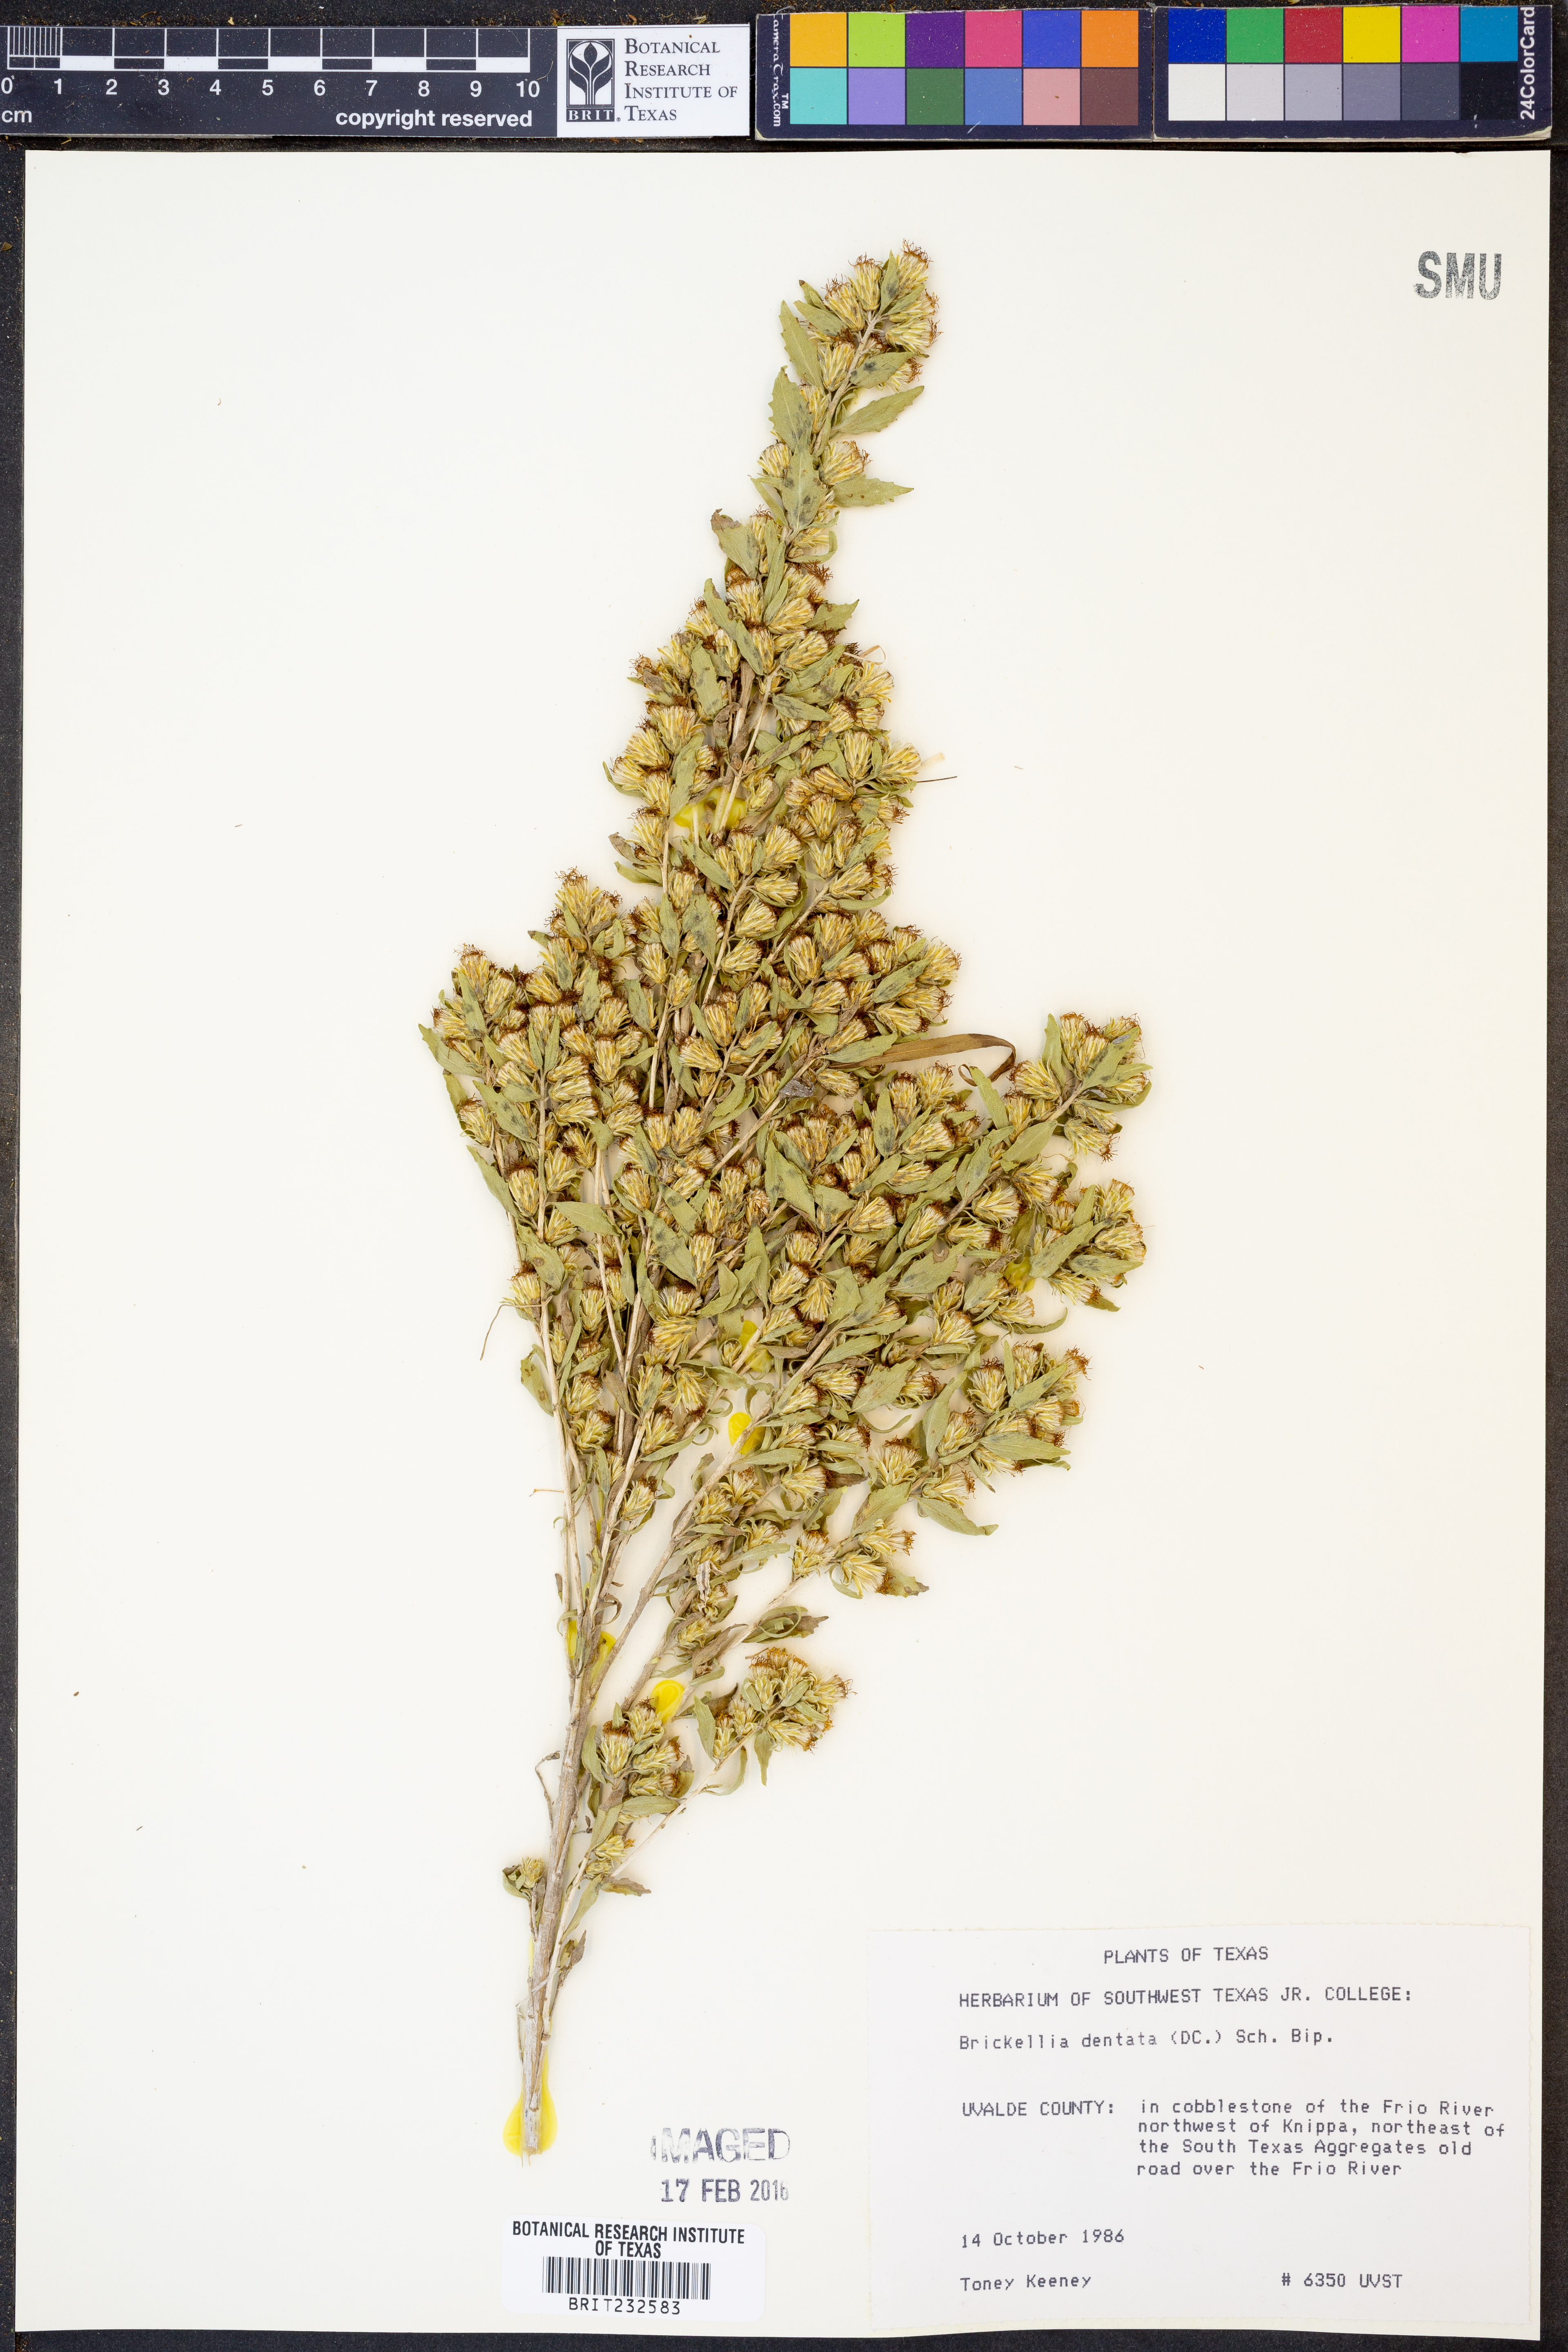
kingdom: Plantae
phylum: Tracheophyta
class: Magnoliopsida
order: Asterales
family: Asteraceae
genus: Brickellia
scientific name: Brickellia dentata
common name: Leafy brickellbush
